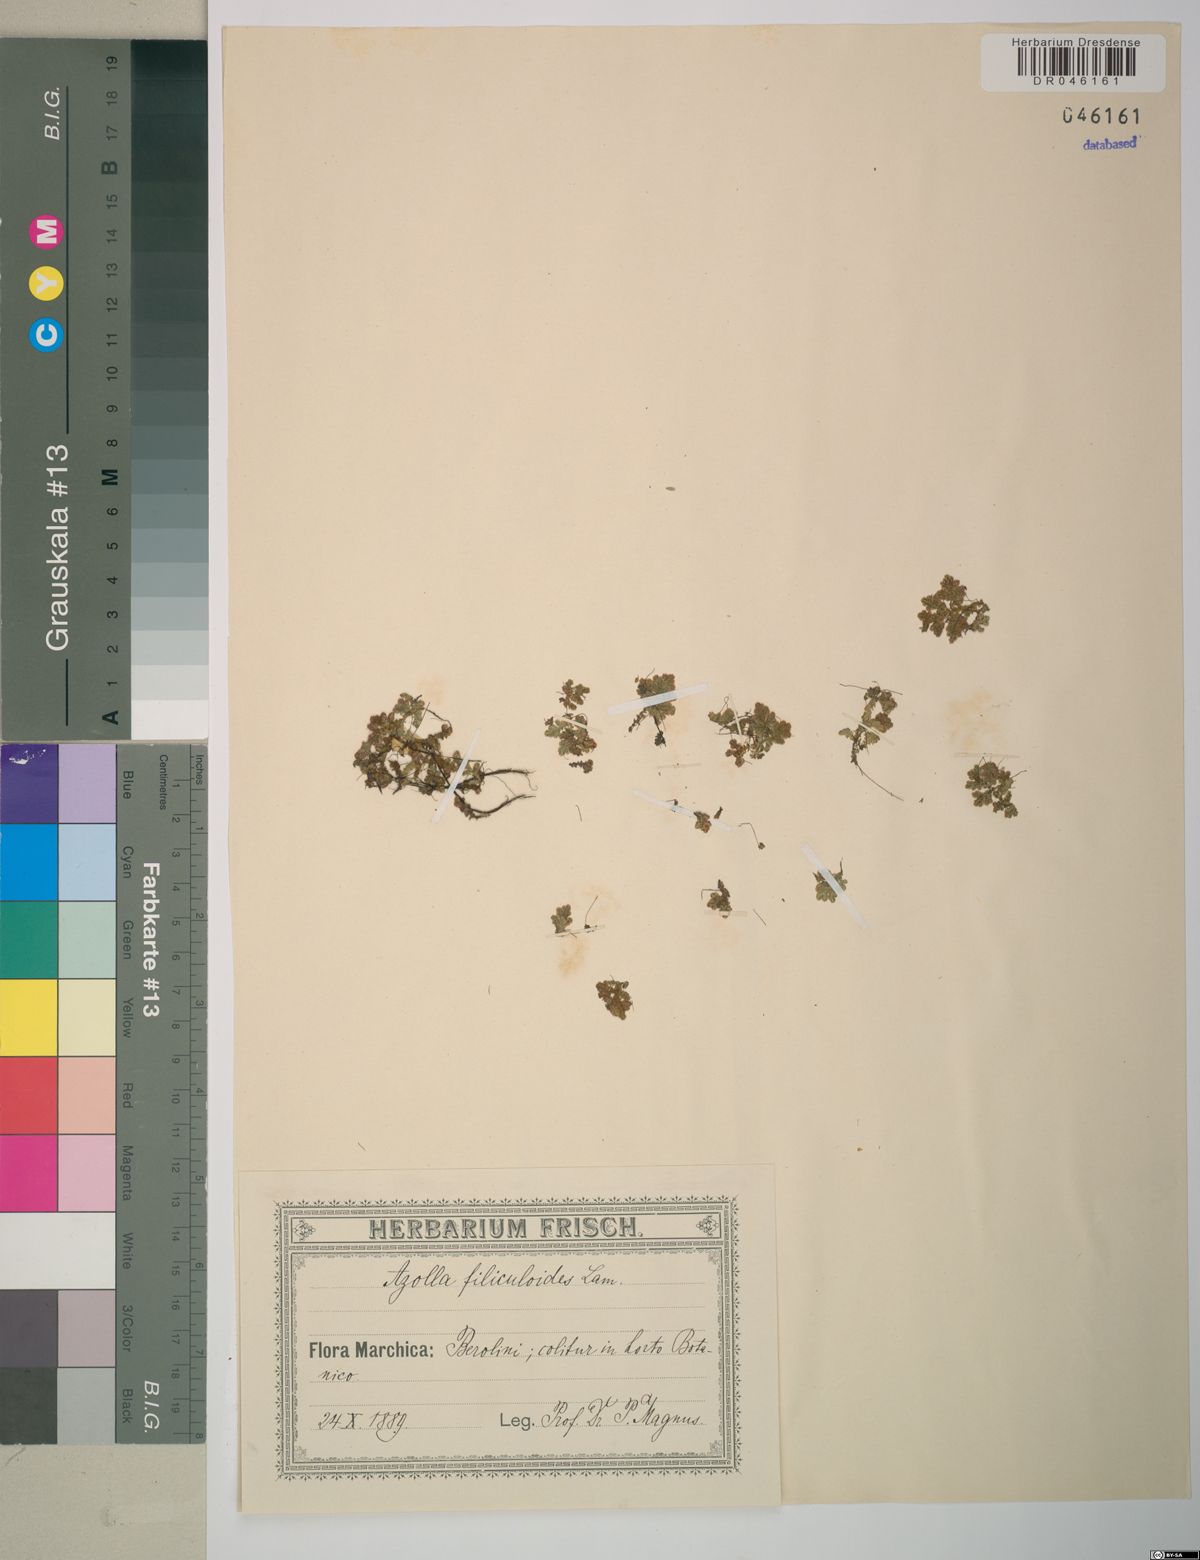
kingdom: Plantae
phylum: Tracheophyta
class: Polypodiopsida
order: Salviniales
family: Salviniaceae
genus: Azolla
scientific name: Azolla filiculoides
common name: Water fern
